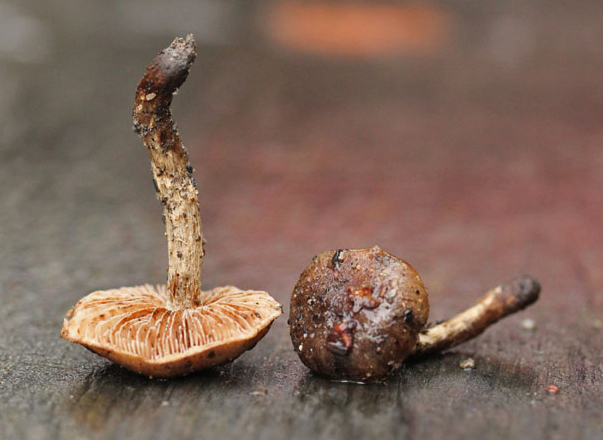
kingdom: Fungi
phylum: Basidiomycota
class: Agaricomycetes
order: Agaricales
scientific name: Agaricales
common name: champignonordenen
